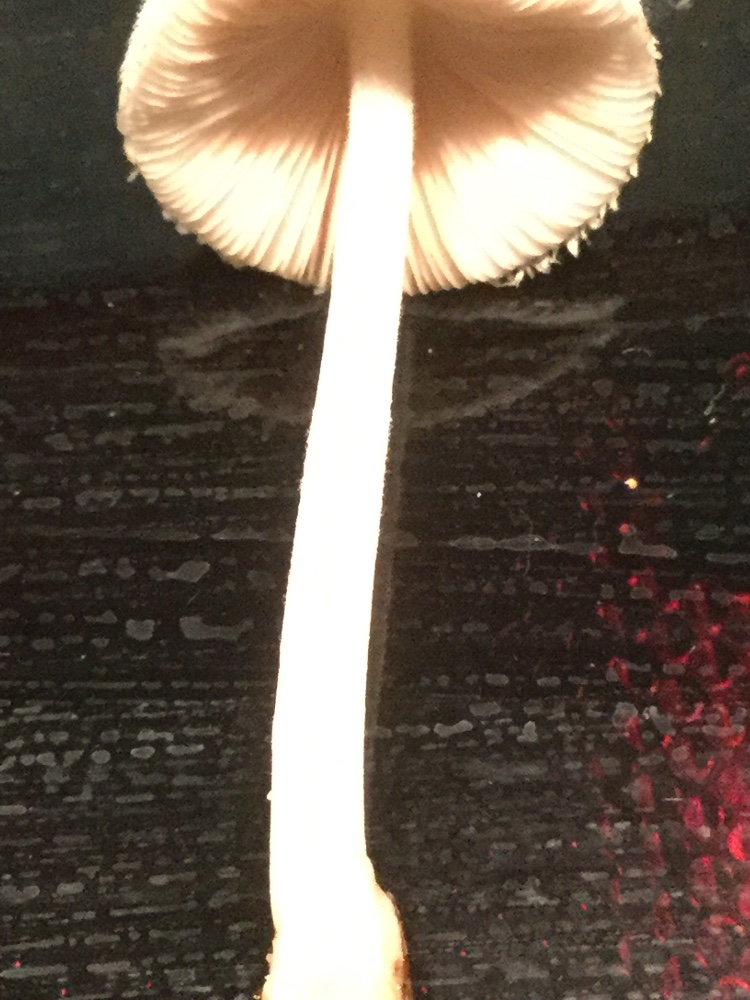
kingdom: Fungi
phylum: Basidiomycota
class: Agaricomycetes
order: Agaricales
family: Pluteaceae
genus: Volvariella
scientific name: Volvariella hypopithys
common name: dunstokket posesvamp
